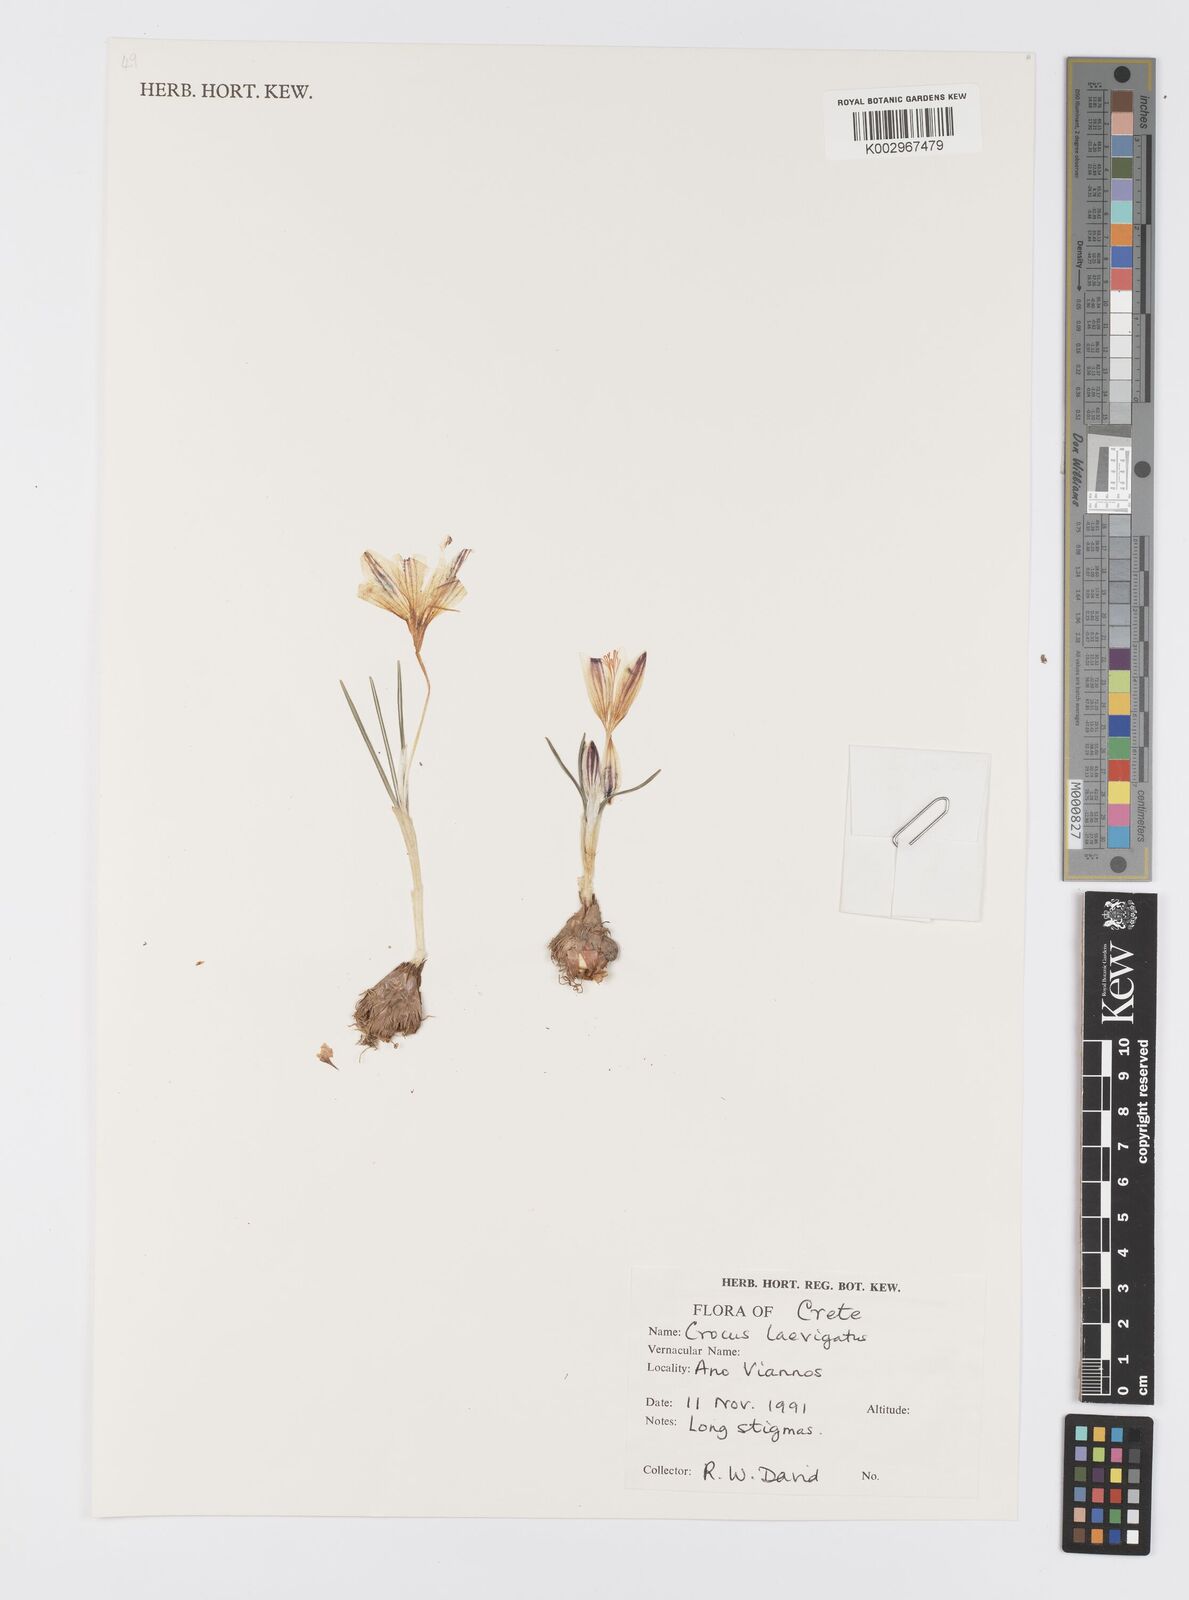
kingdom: Plantae
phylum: Tracheophyta
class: Liliopsida
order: Asparagales
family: Iridaceae
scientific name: Iridaceae
